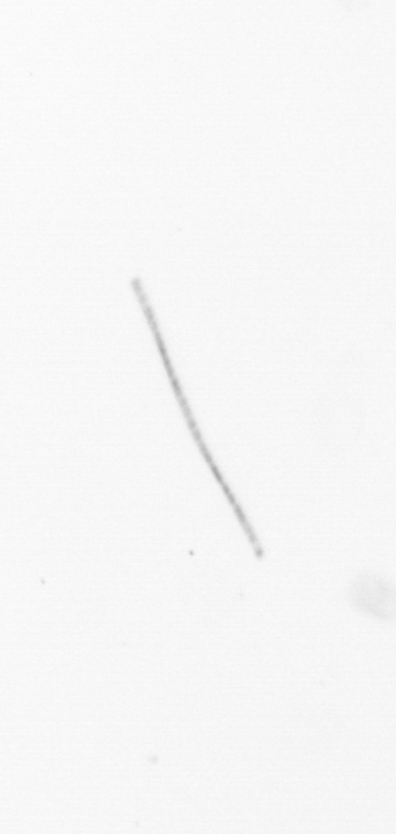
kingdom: Chromista
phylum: Ochrophyta
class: Bacillariophyceae
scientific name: Bacillariophyceae
